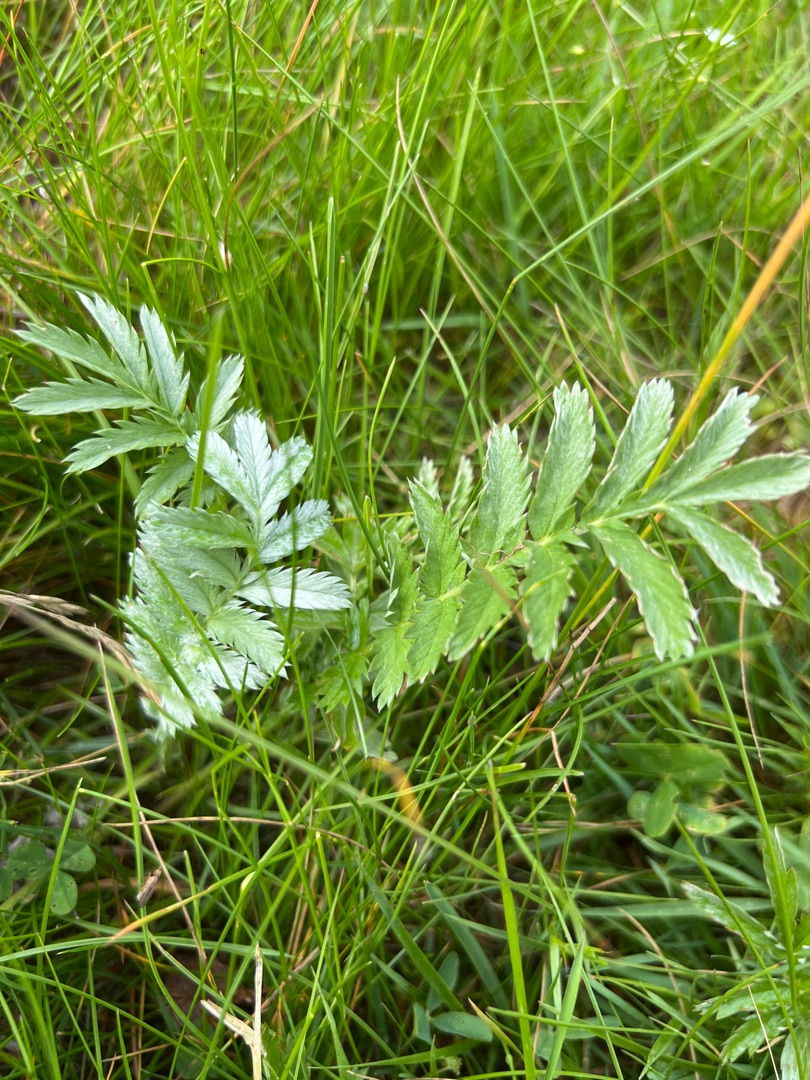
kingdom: Plantae
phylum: Tracheophyta
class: Magnoliopsida
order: Rosales
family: Rosaceae
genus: Argentina
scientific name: Argentina anserina
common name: Gåsepotentil
